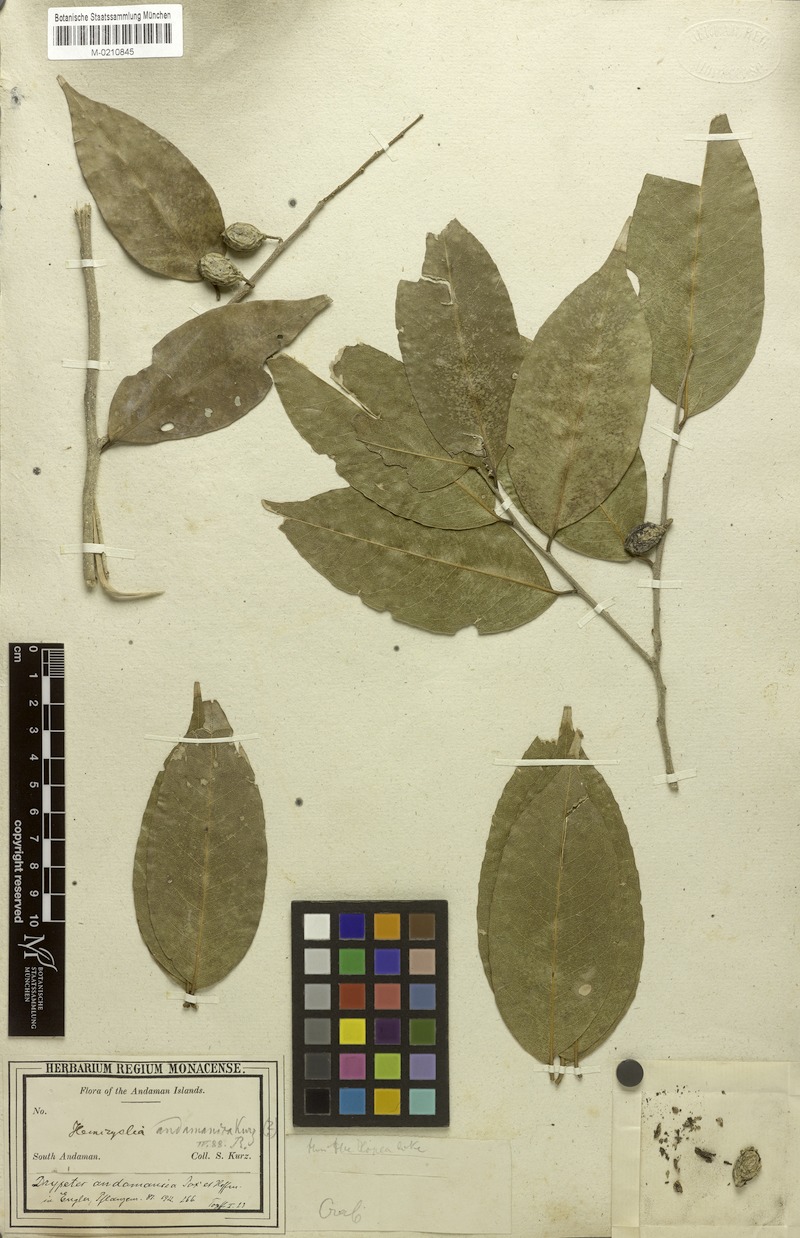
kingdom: Plantae
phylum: Tracheophyta
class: Magnoliopsida
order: Malpighiales
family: Putranjivaceae
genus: Drypetes
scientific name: Drypetes andamanica
